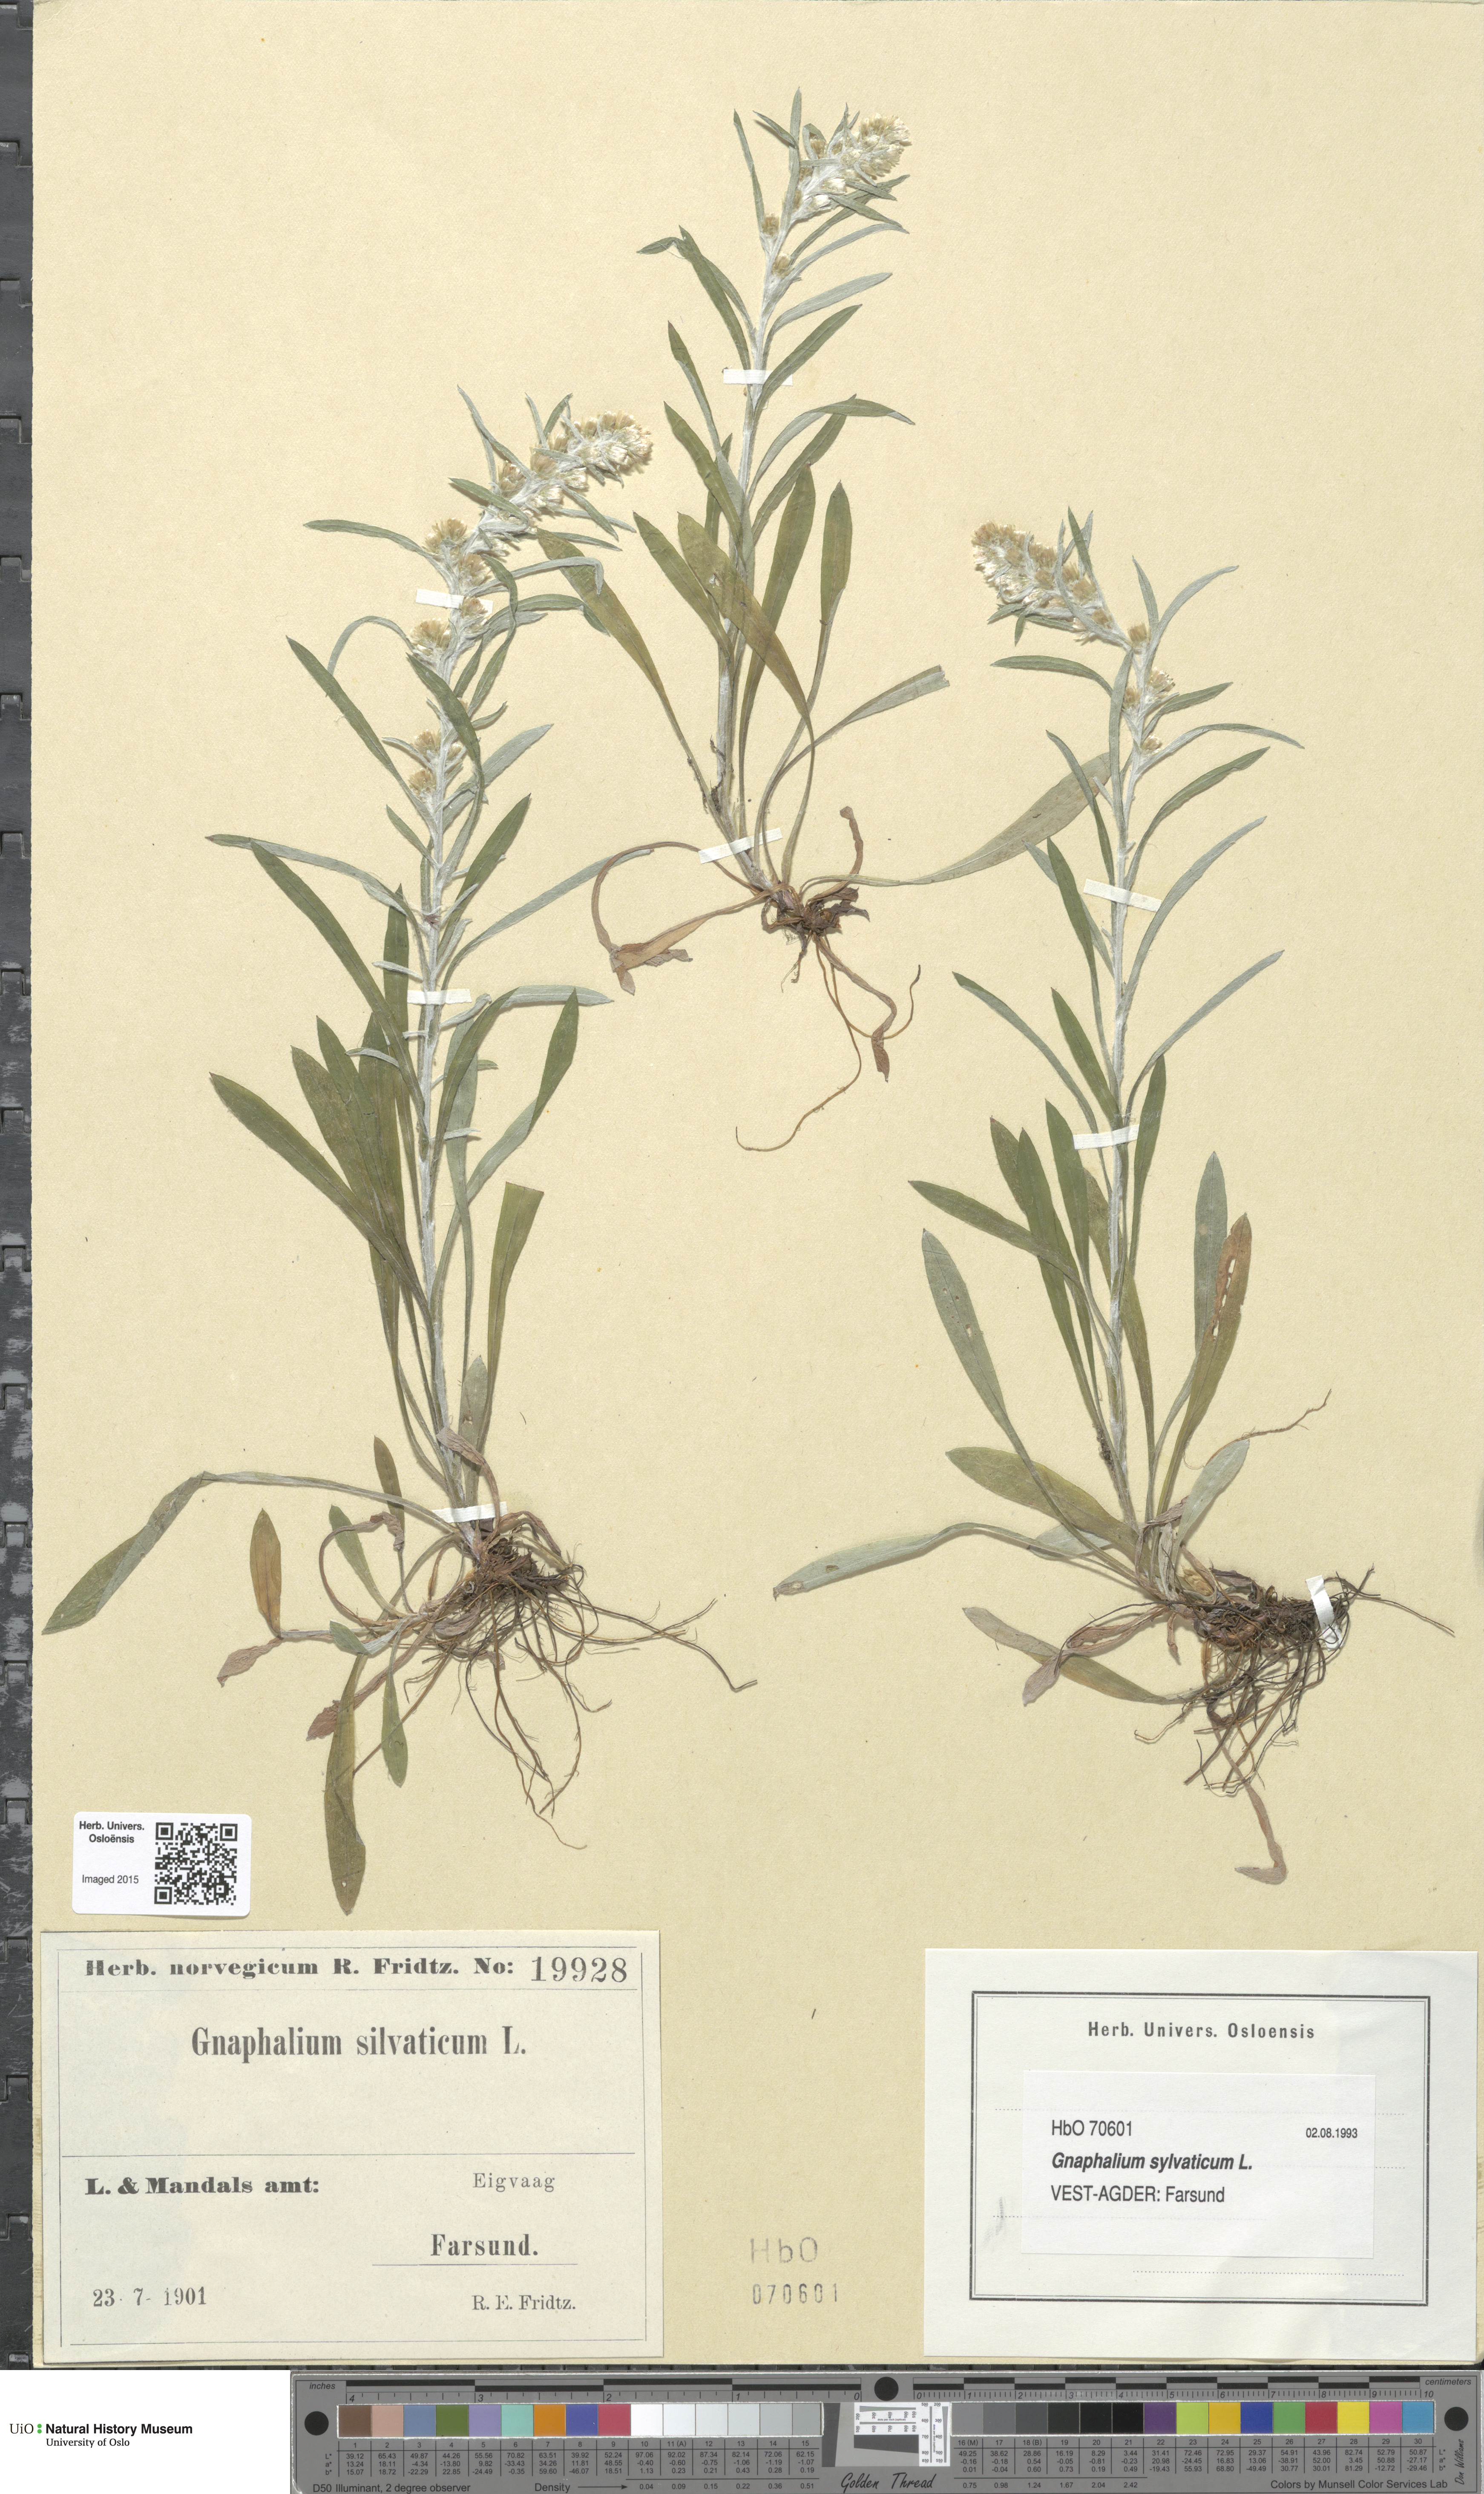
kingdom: Plantae
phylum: Tracheophyta
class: Magnoliopsida
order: Asterales
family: Asteraceae
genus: Omalotheca
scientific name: Omalotheca sylvatica
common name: Heath cudweed
